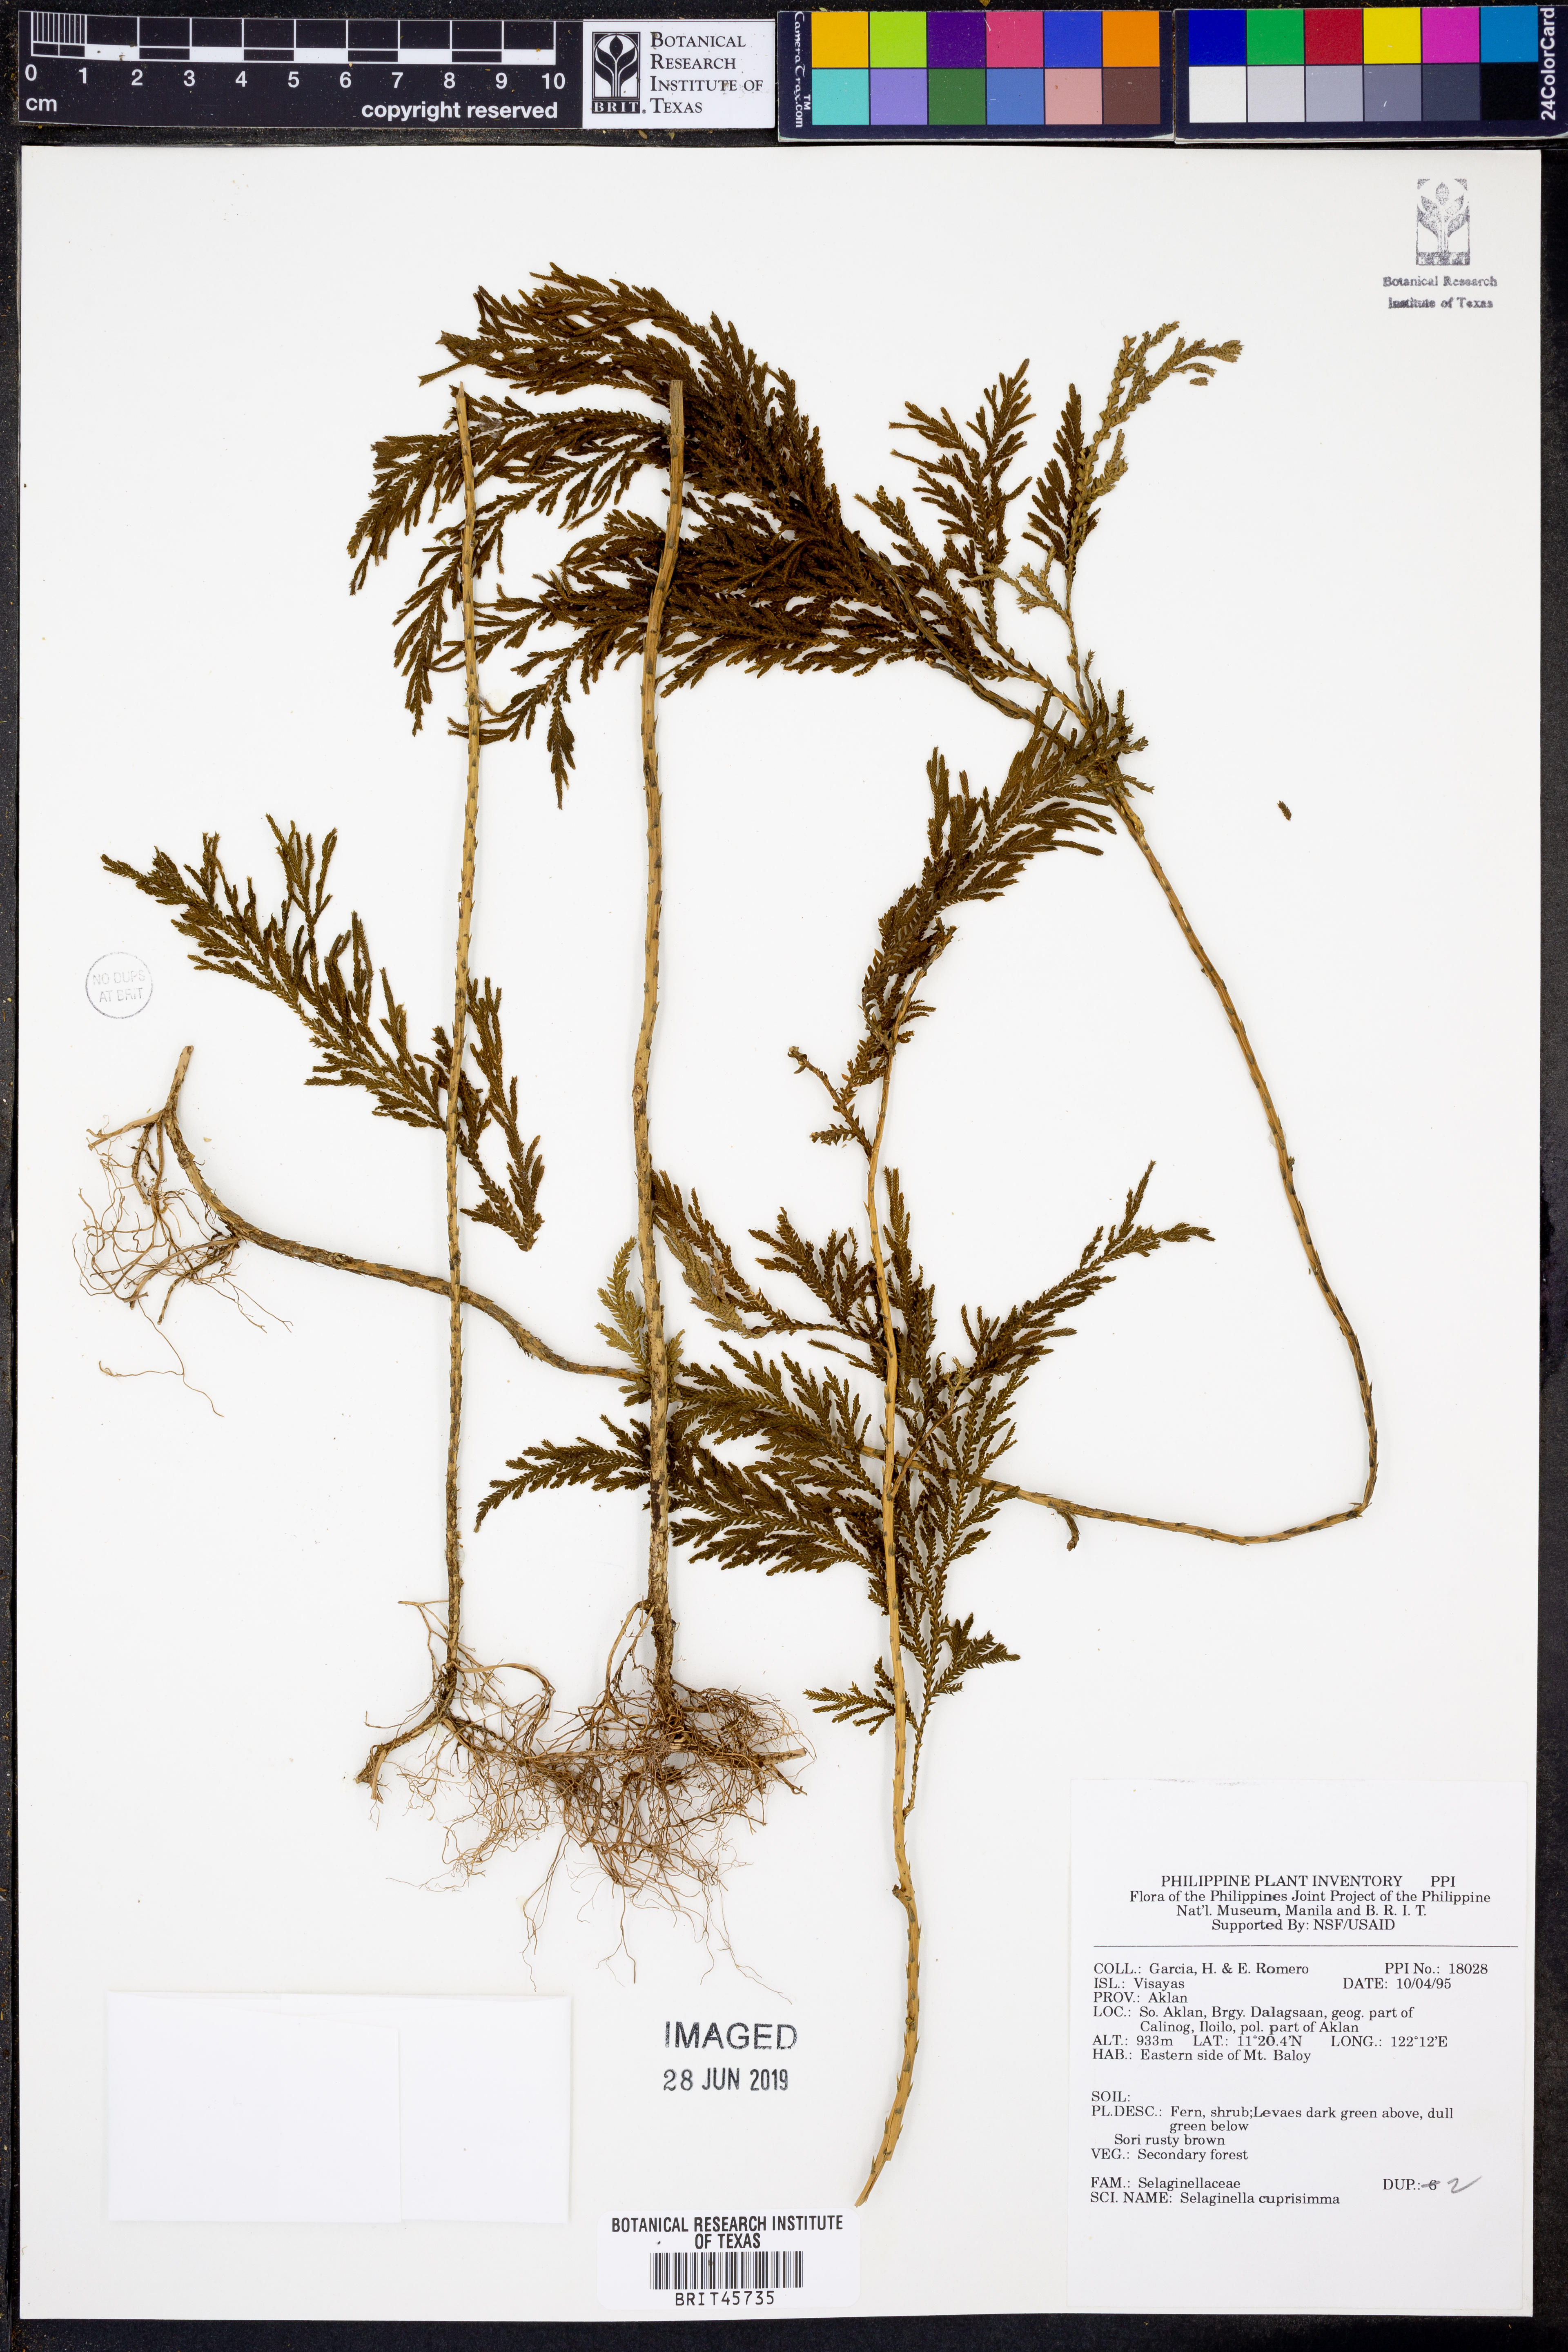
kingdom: Plantae
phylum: Tracheophyta
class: Lycopodiopsida
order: Selaginellales
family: Selaginellaceae
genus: Selaginella
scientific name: Selaginella cupressina
